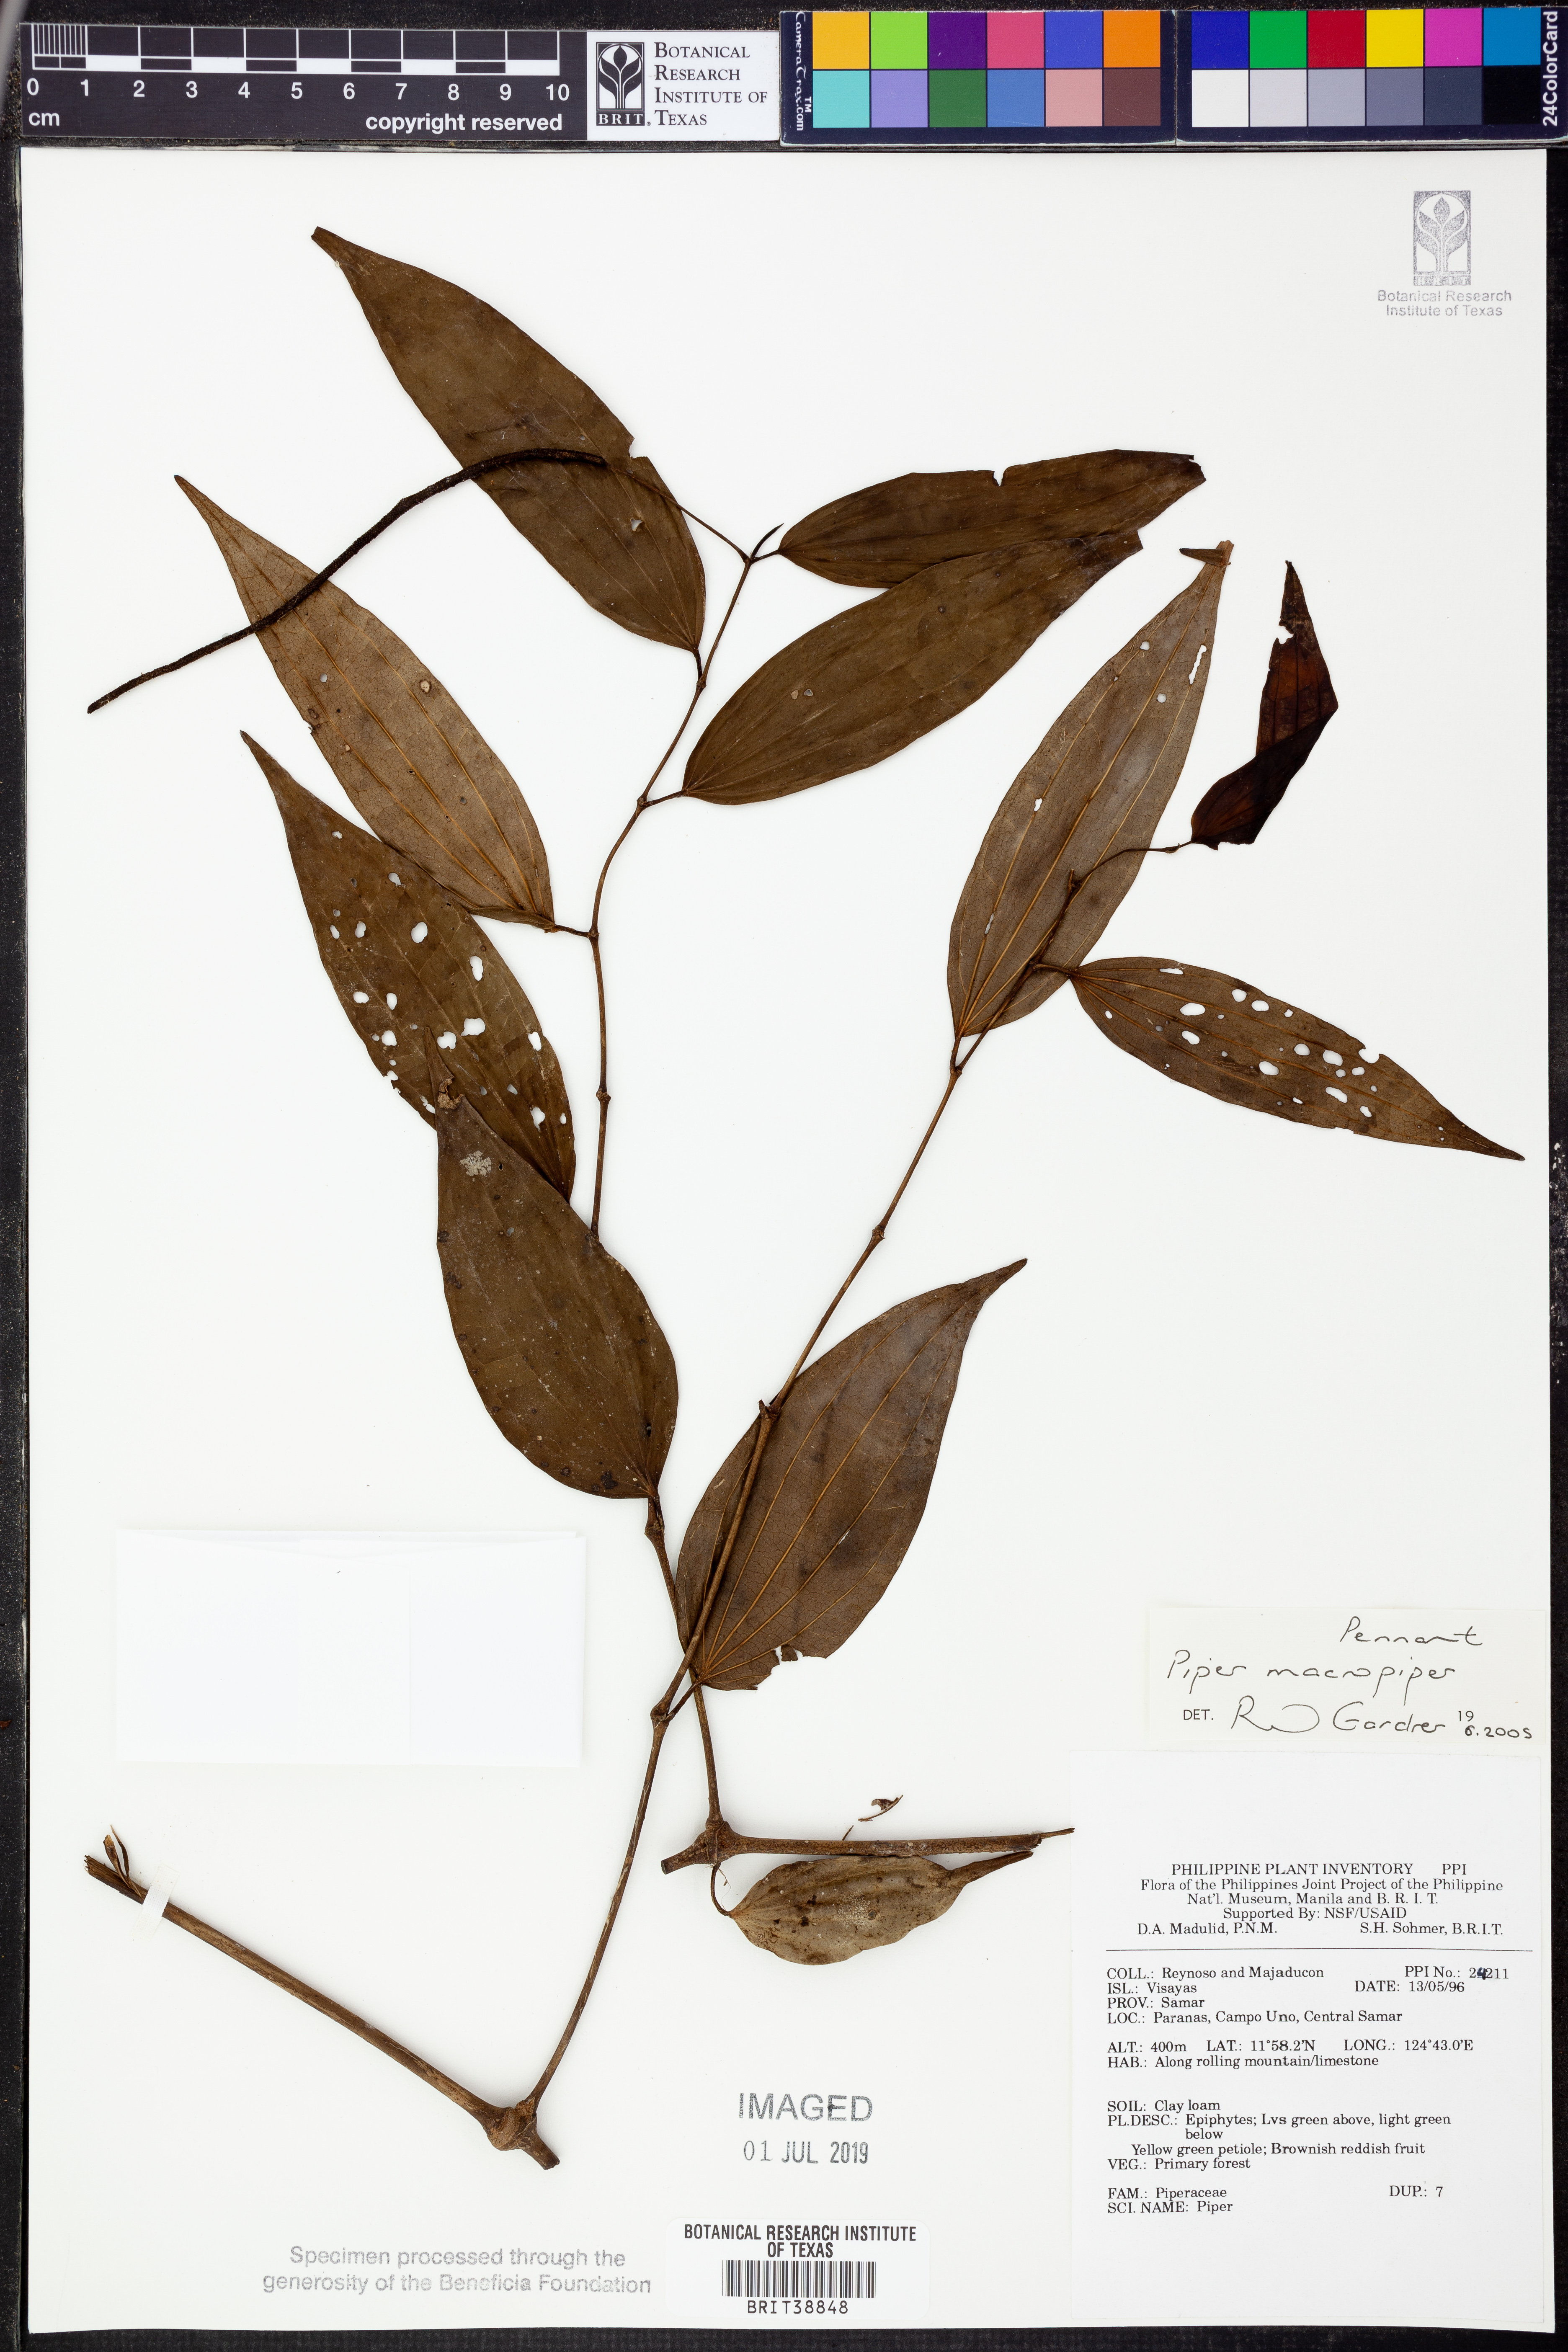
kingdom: Plantae
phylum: Tracheophyta
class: Magnoliopsida
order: Piperales
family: Piperaceae
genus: Piper
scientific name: Piper macropiper
